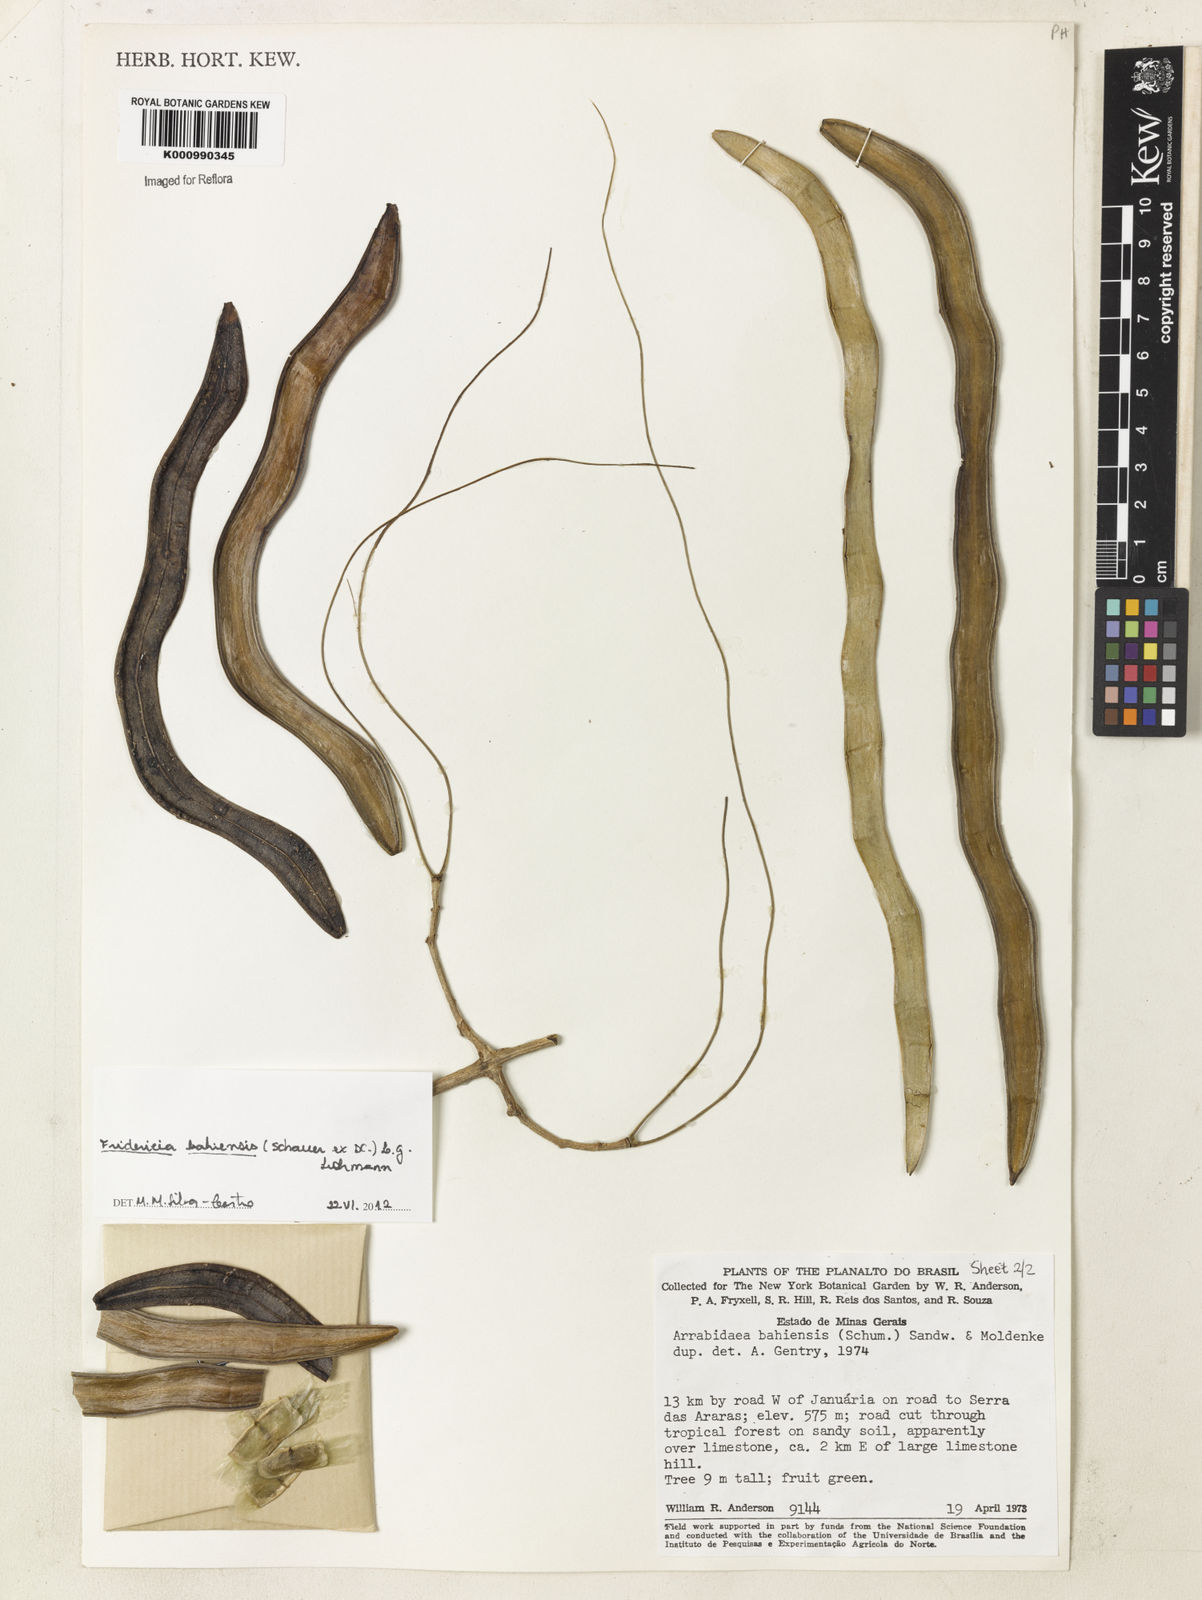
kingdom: Plantae
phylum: Tracheophyta
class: Magnoliopsida
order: Lamiales
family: Bignoniaceae
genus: Fridericia
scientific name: Fridericia bahiensis
